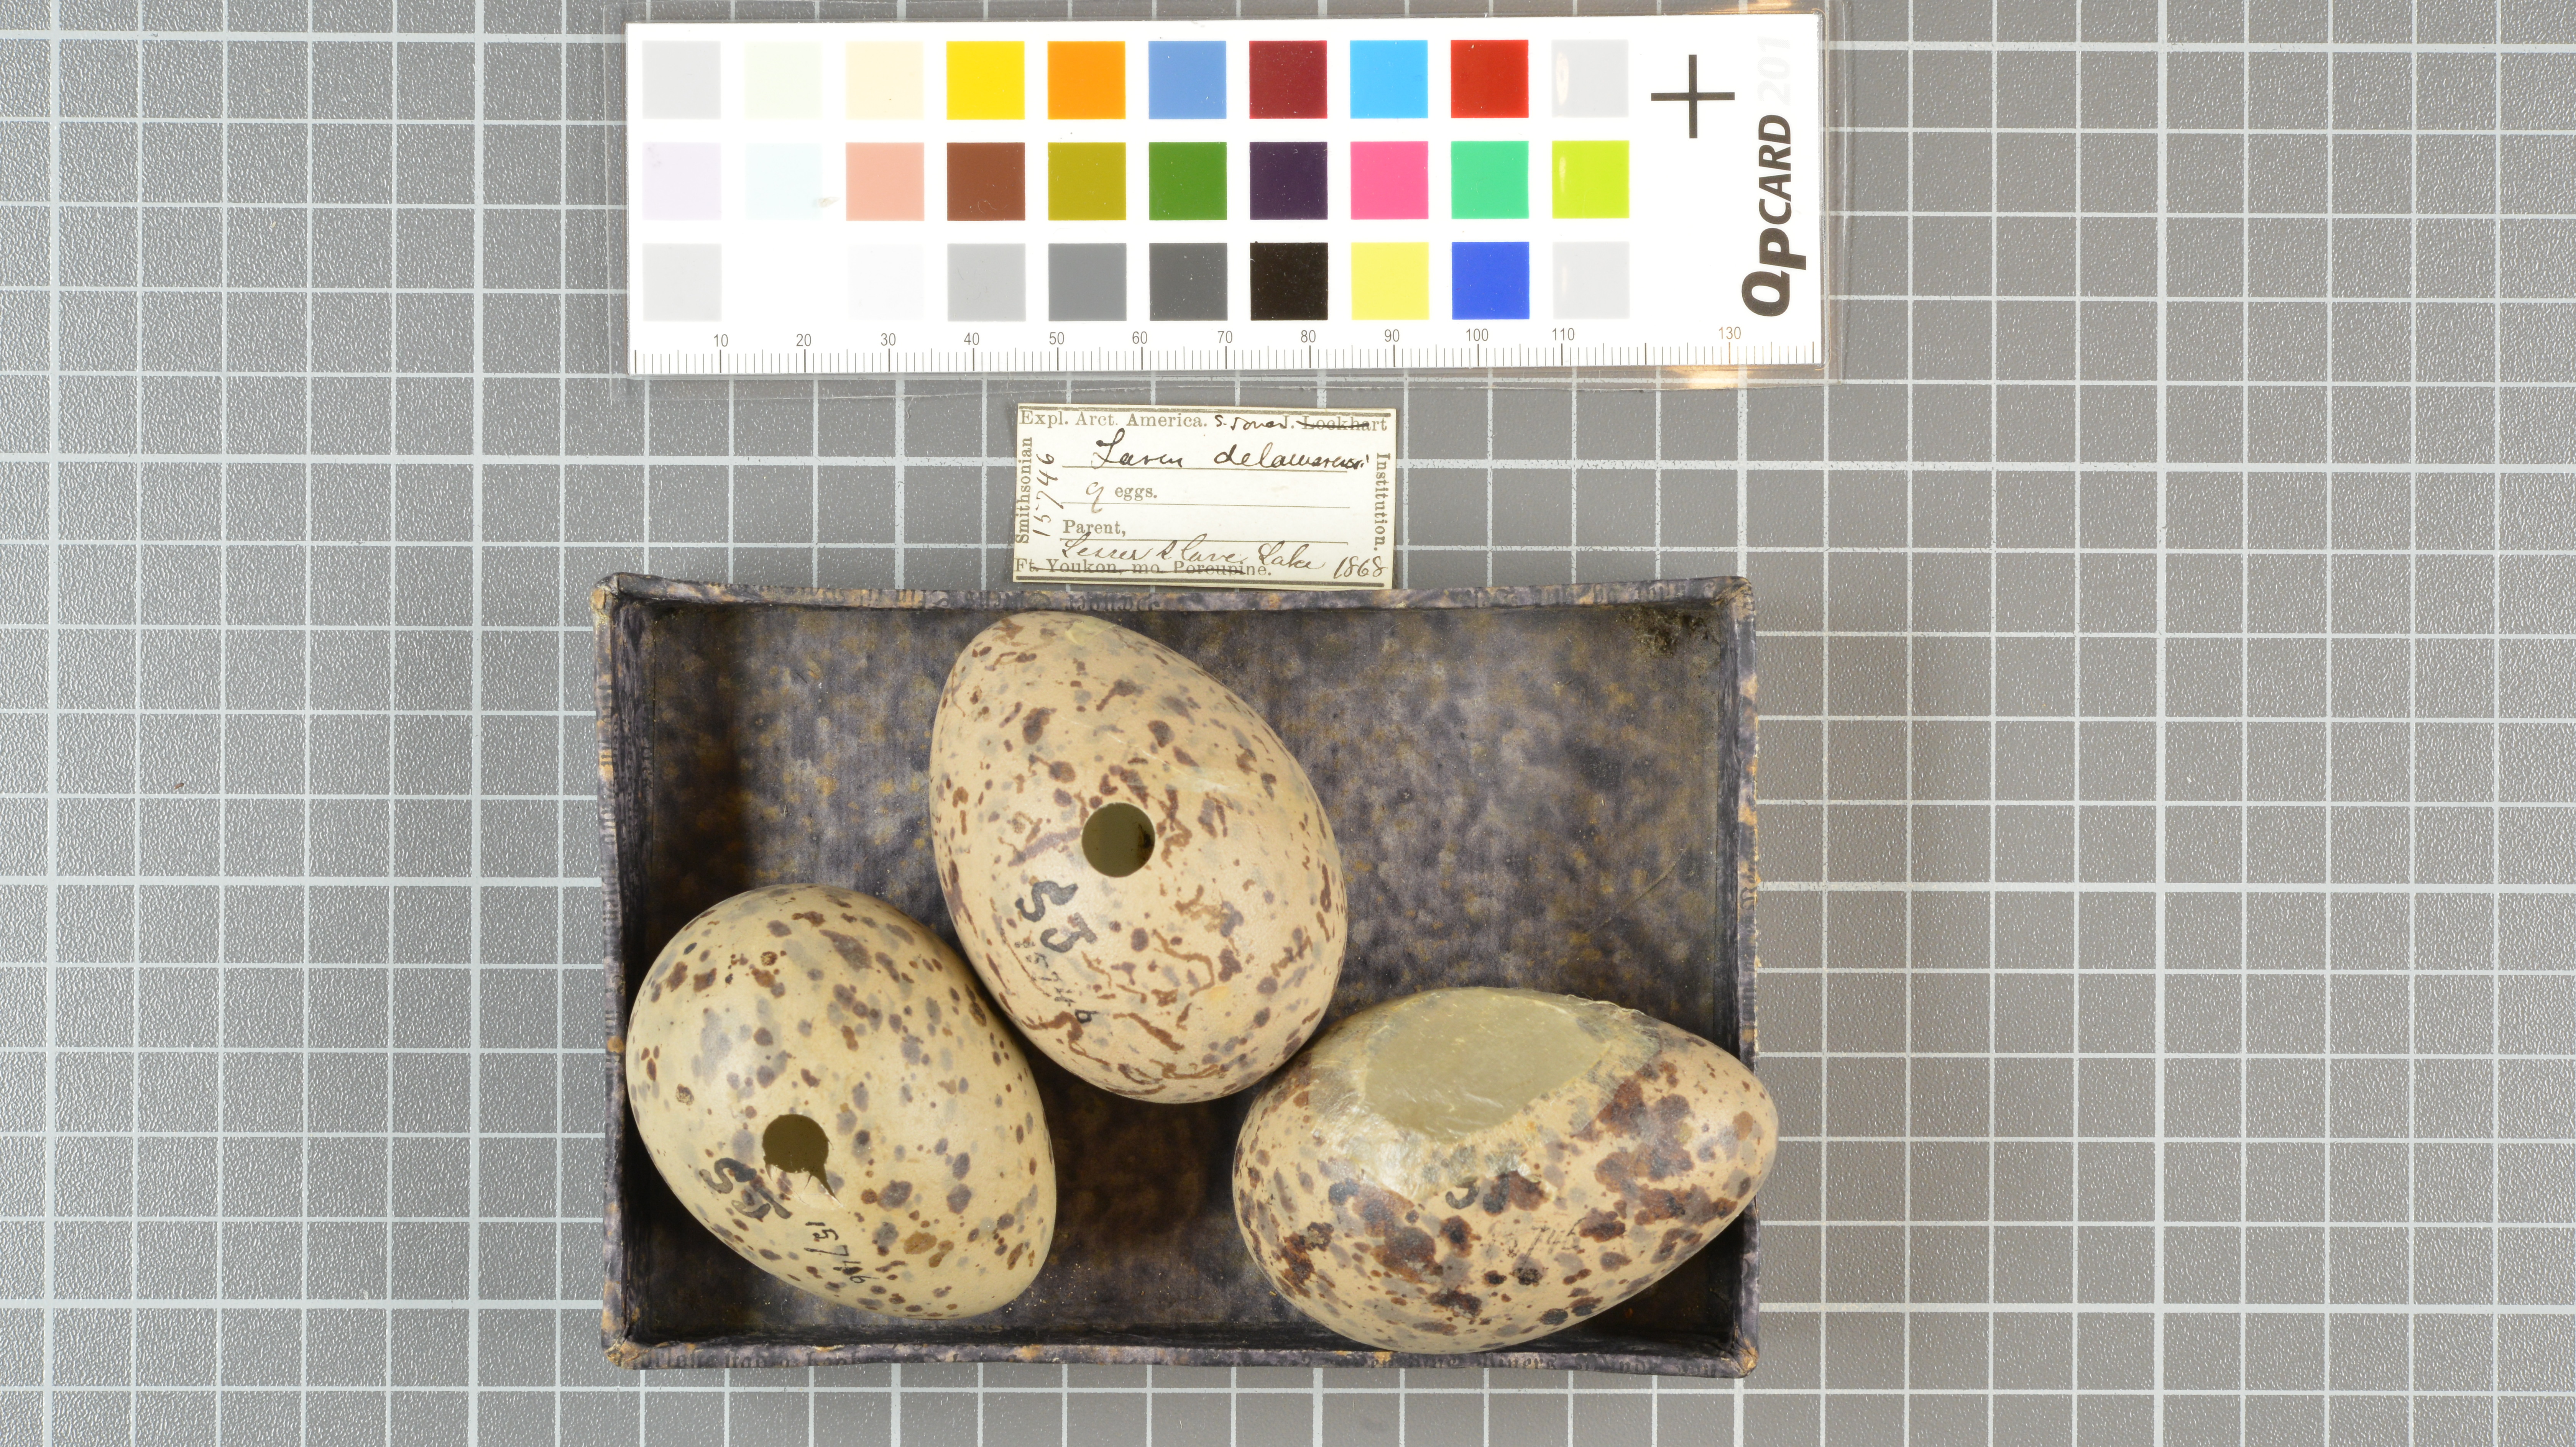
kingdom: Animalia
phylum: Chordata
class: Aves
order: Charadriiformes
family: Laridae
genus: Larus
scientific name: Larus delawarensis
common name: Ring-billed gull
